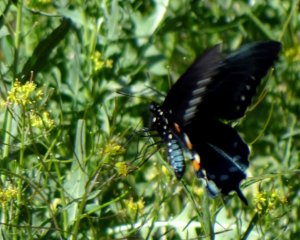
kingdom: Animalia
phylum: Arthropoda
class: Insecta
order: Lepidoptera
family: Papilionidae
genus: Battus
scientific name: Battus philenor
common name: Pipevine Swallowtail
